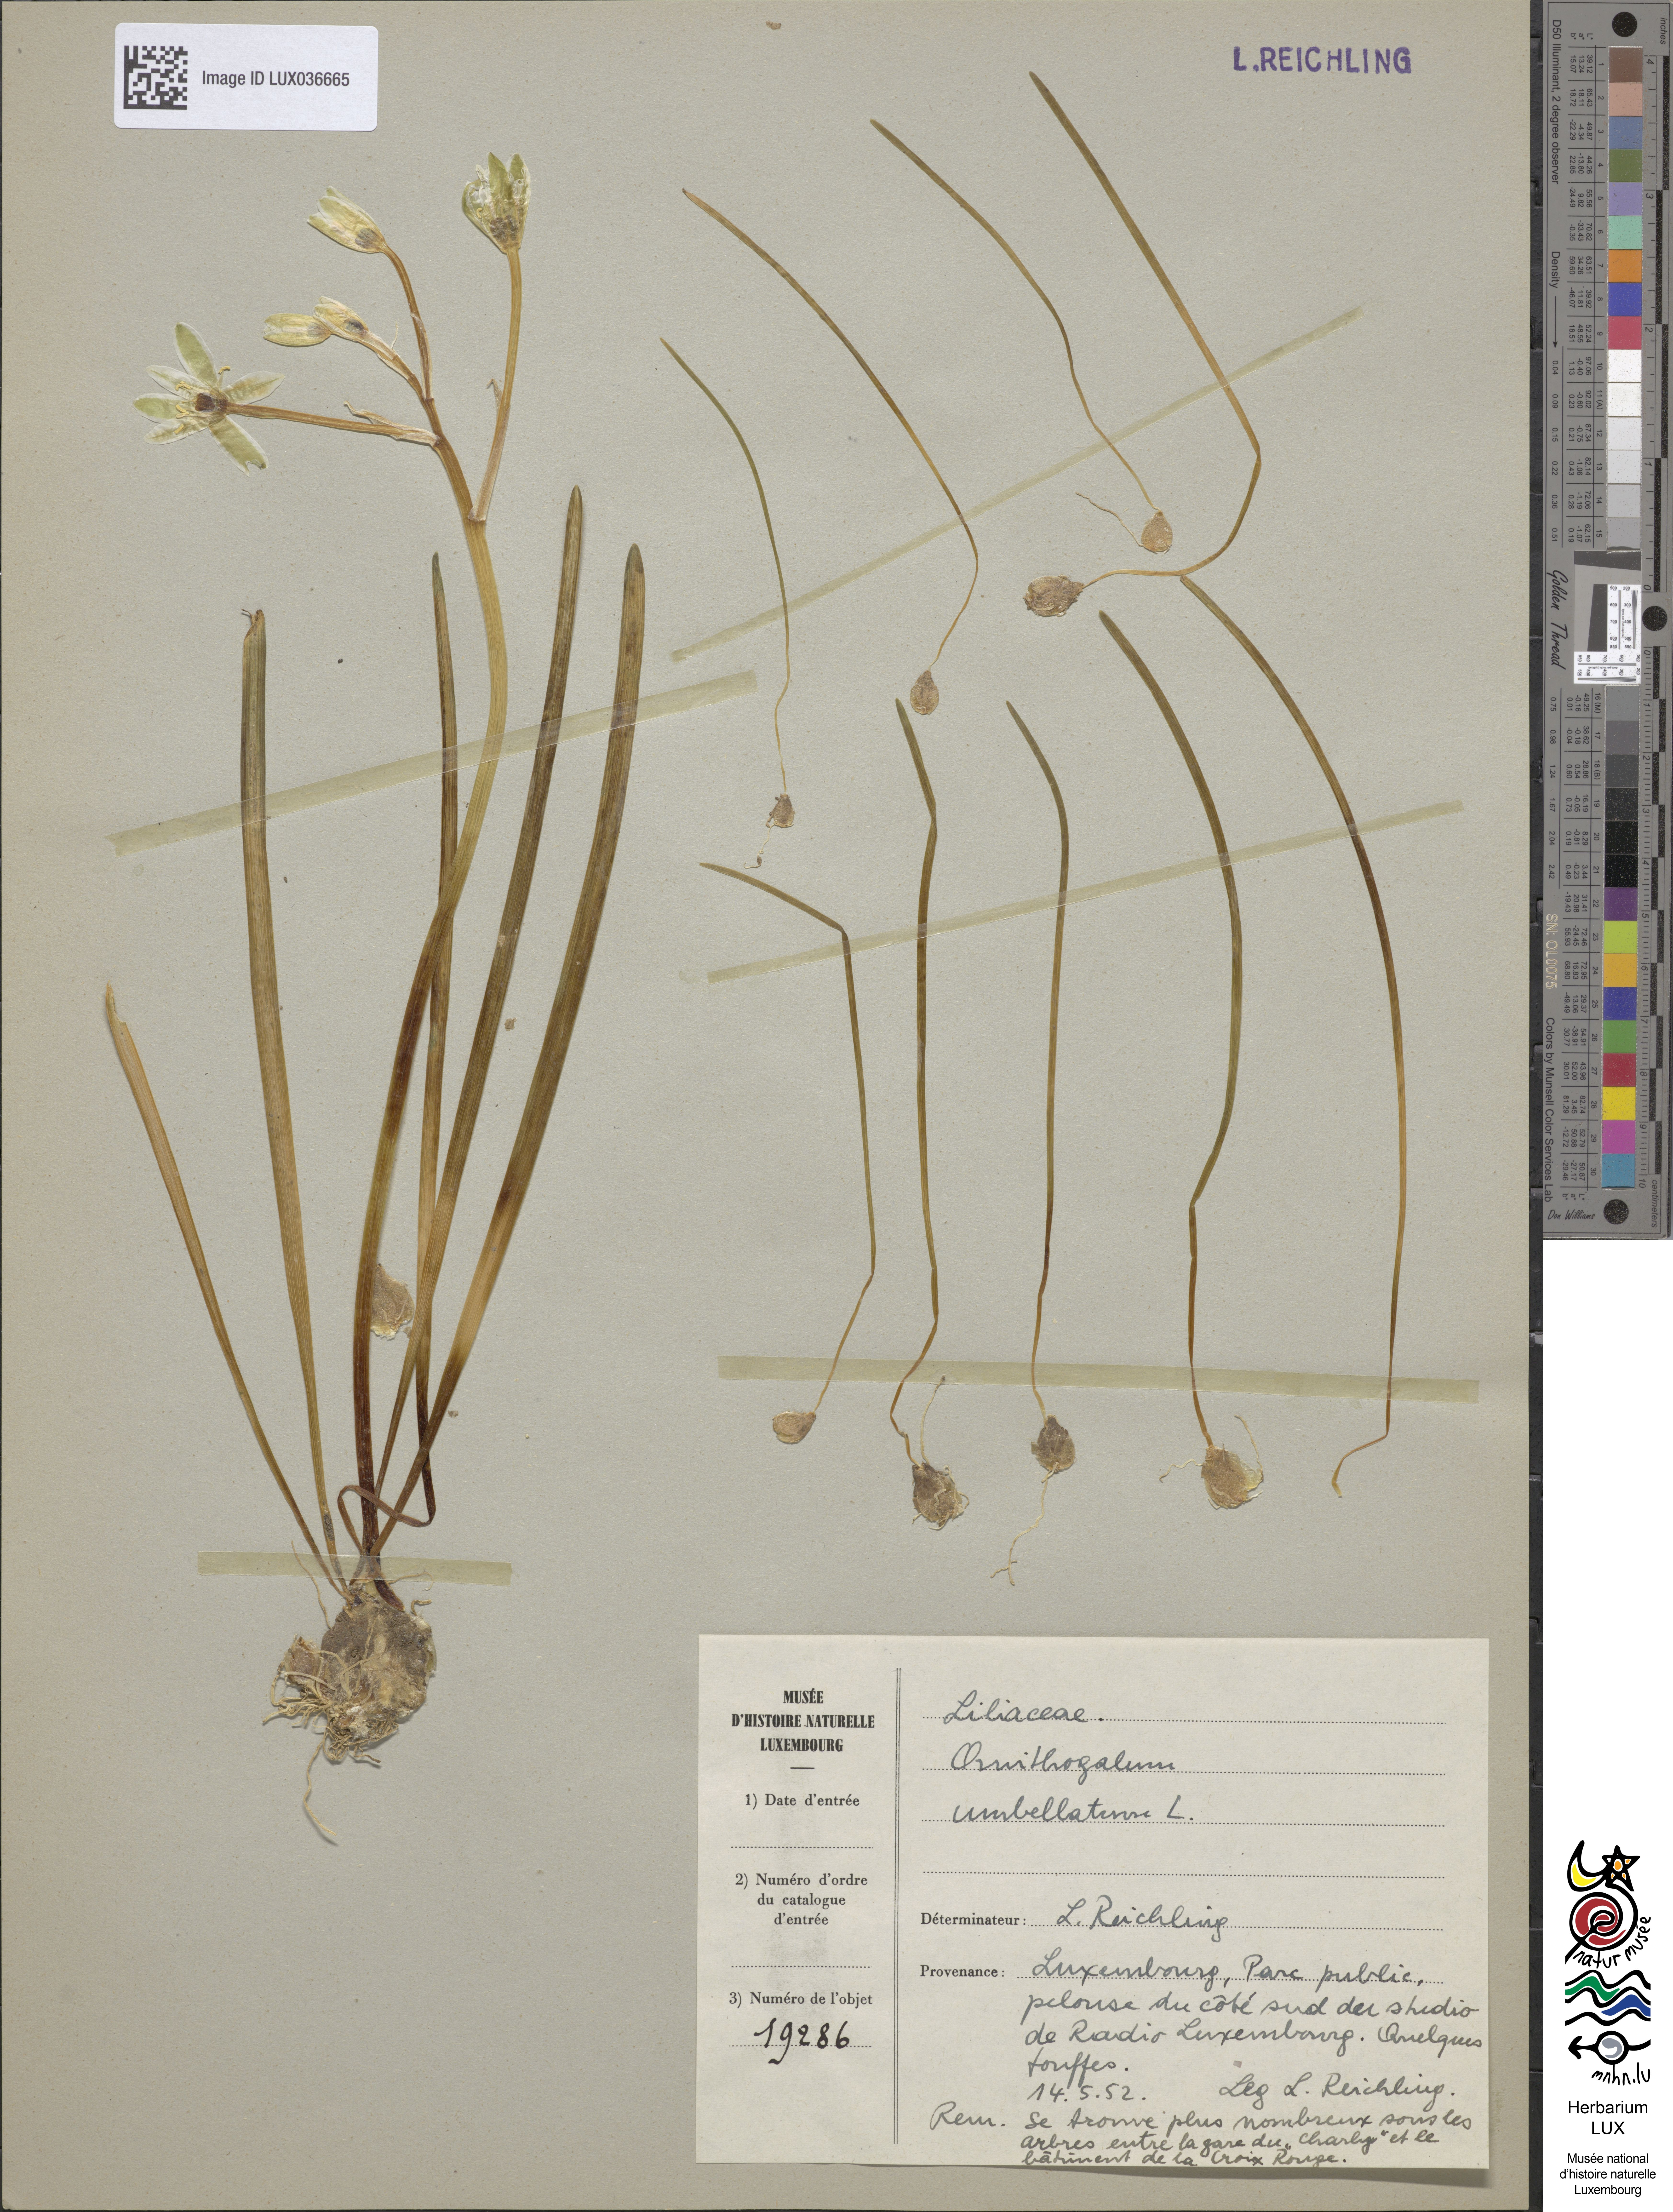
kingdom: Plantae
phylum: Tracheophyta
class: Liliopsida
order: Asparagales
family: Asparagaceae
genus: Ornithogalum
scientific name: Ornithogalum umbellatum
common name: Garden star-of-bethlehem
